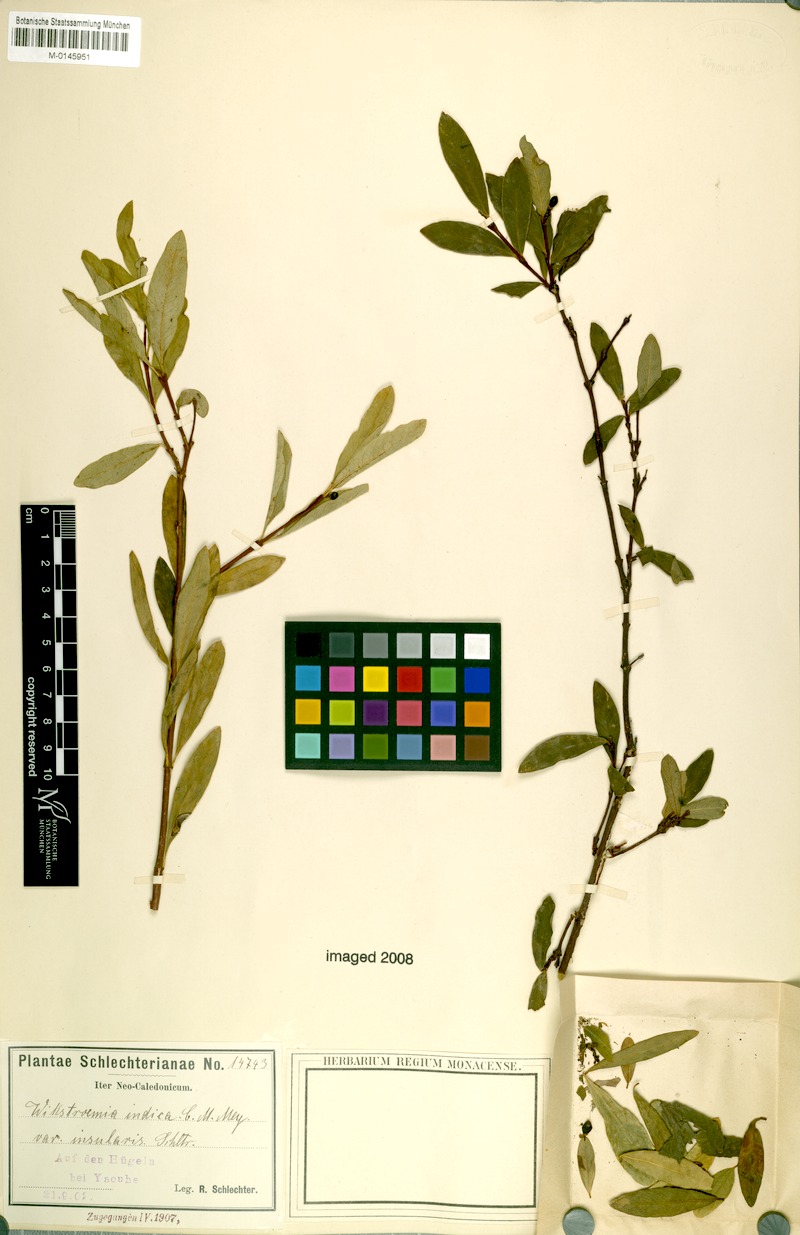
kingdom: Plantae
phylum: Tracheophyta
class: Magnoliopsida
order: Malvales
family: Thymelaeaceae
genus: Wikstroemia
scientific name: Wikstroemia indica
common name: Tiebush
